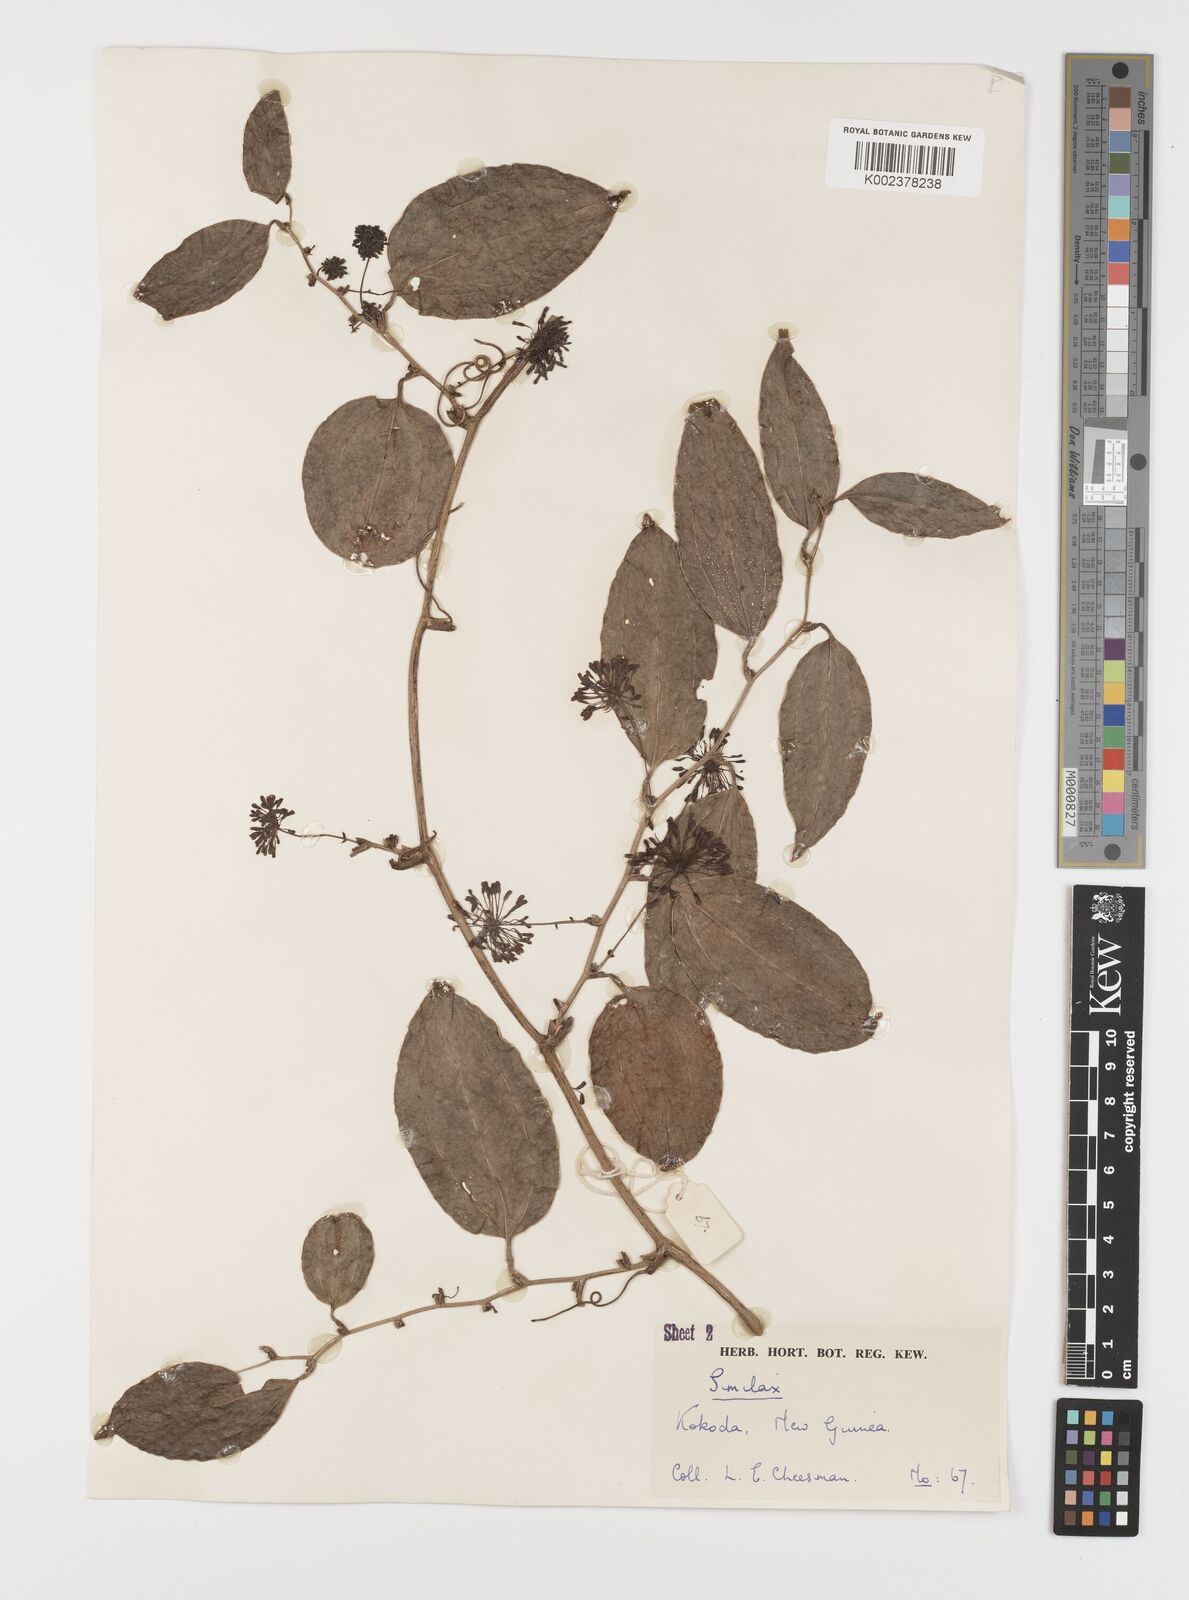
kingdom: Plantae
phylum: Tracheophyta
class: Liliopsida
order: Liliales
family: Smilacaceae
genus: Smilax
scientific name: Smilax
